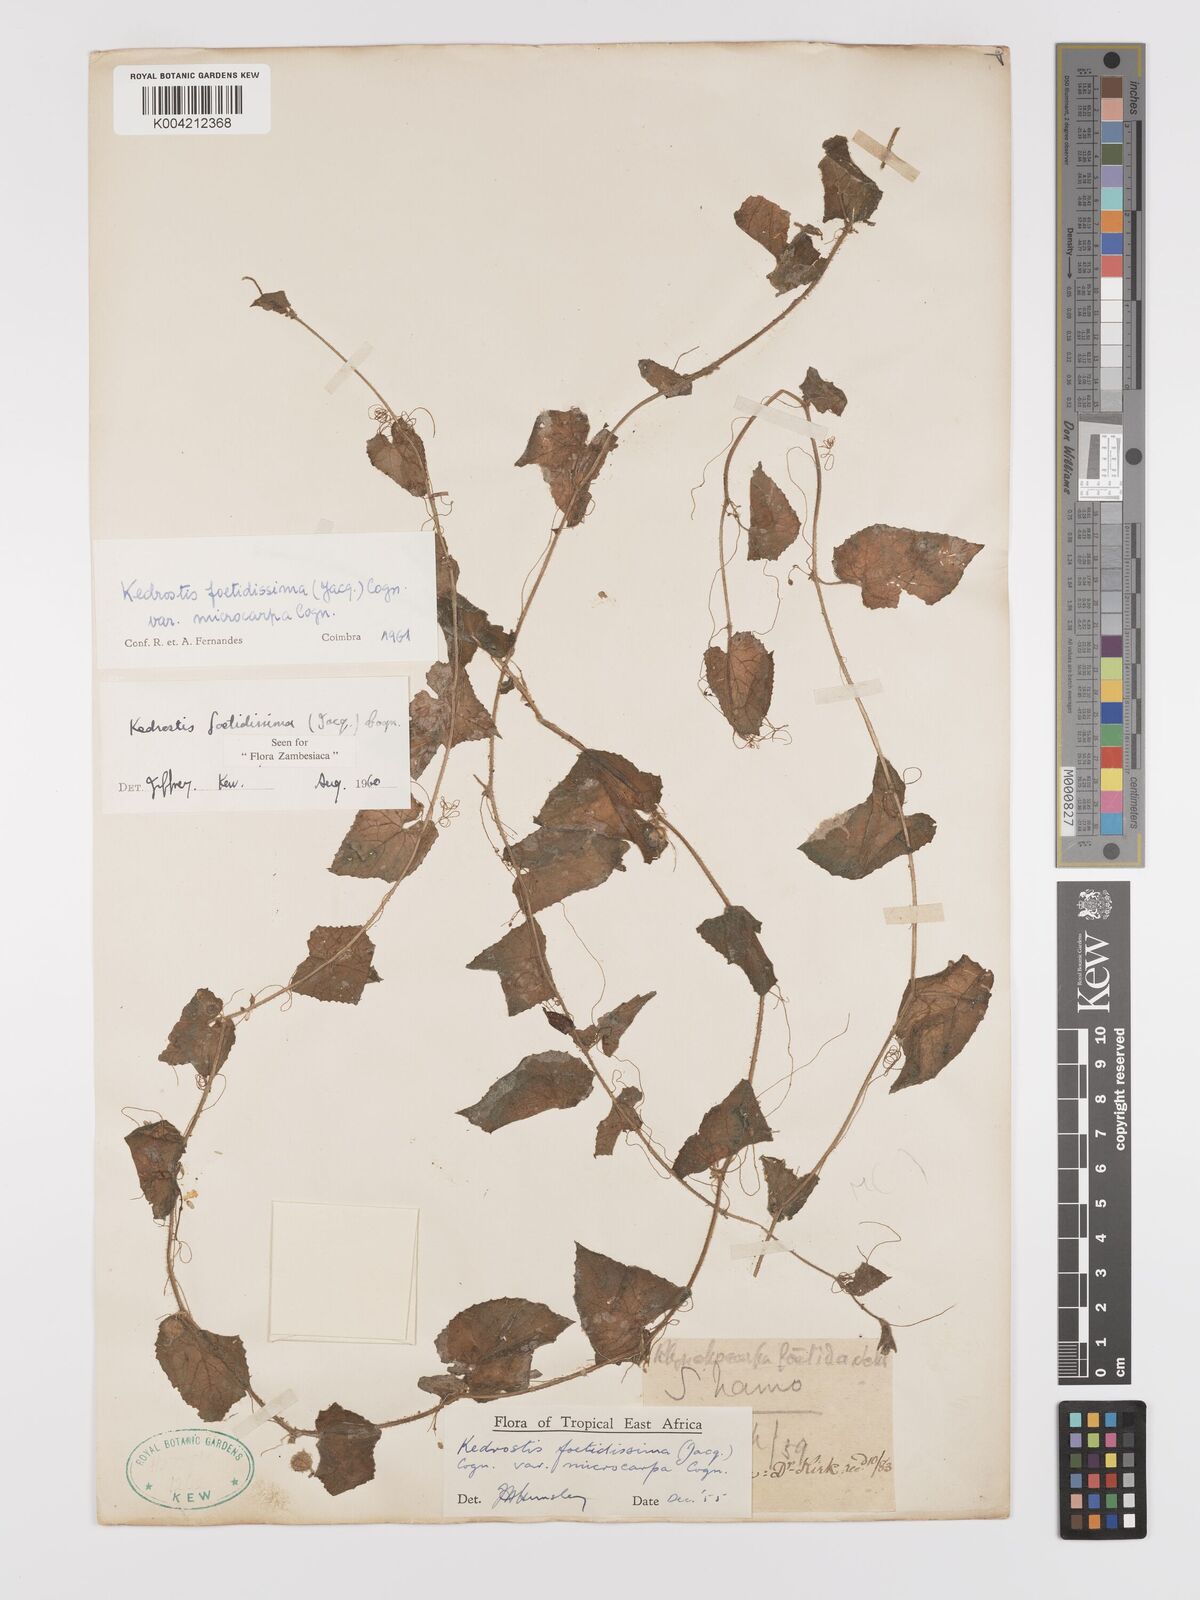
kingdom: Plantae
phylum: Tracheophyta
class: Magnoliopsida
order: Cucurbitales
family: Cucurbitaceae
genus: Kedrostis
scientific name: Kedrostis foetidissima
